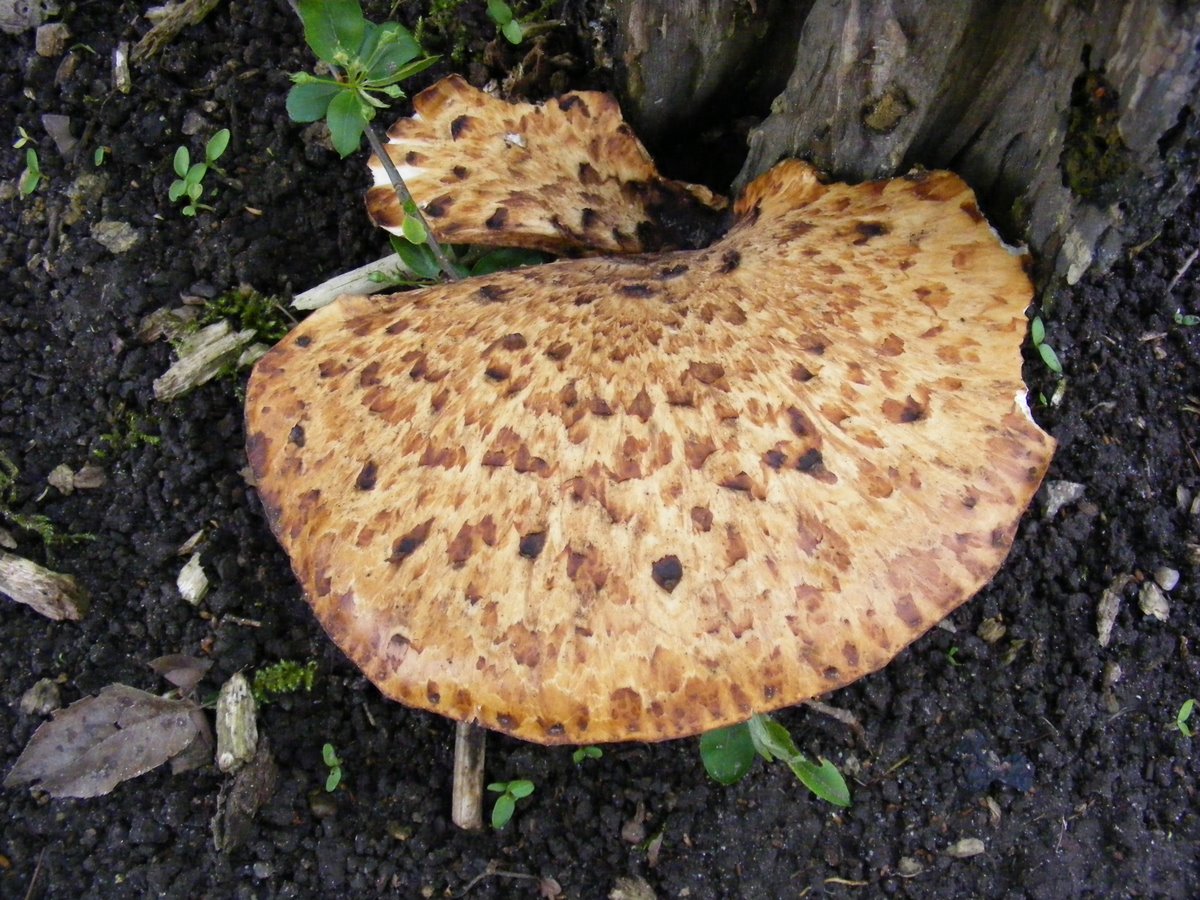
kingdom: Fungi
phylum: Basidiomycota
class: Agaricomycetes
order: Polyporales
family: Polyporaceae
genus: Cerioporus
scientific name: Cerioporus squamosus
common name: skællet stilkporesvamp
